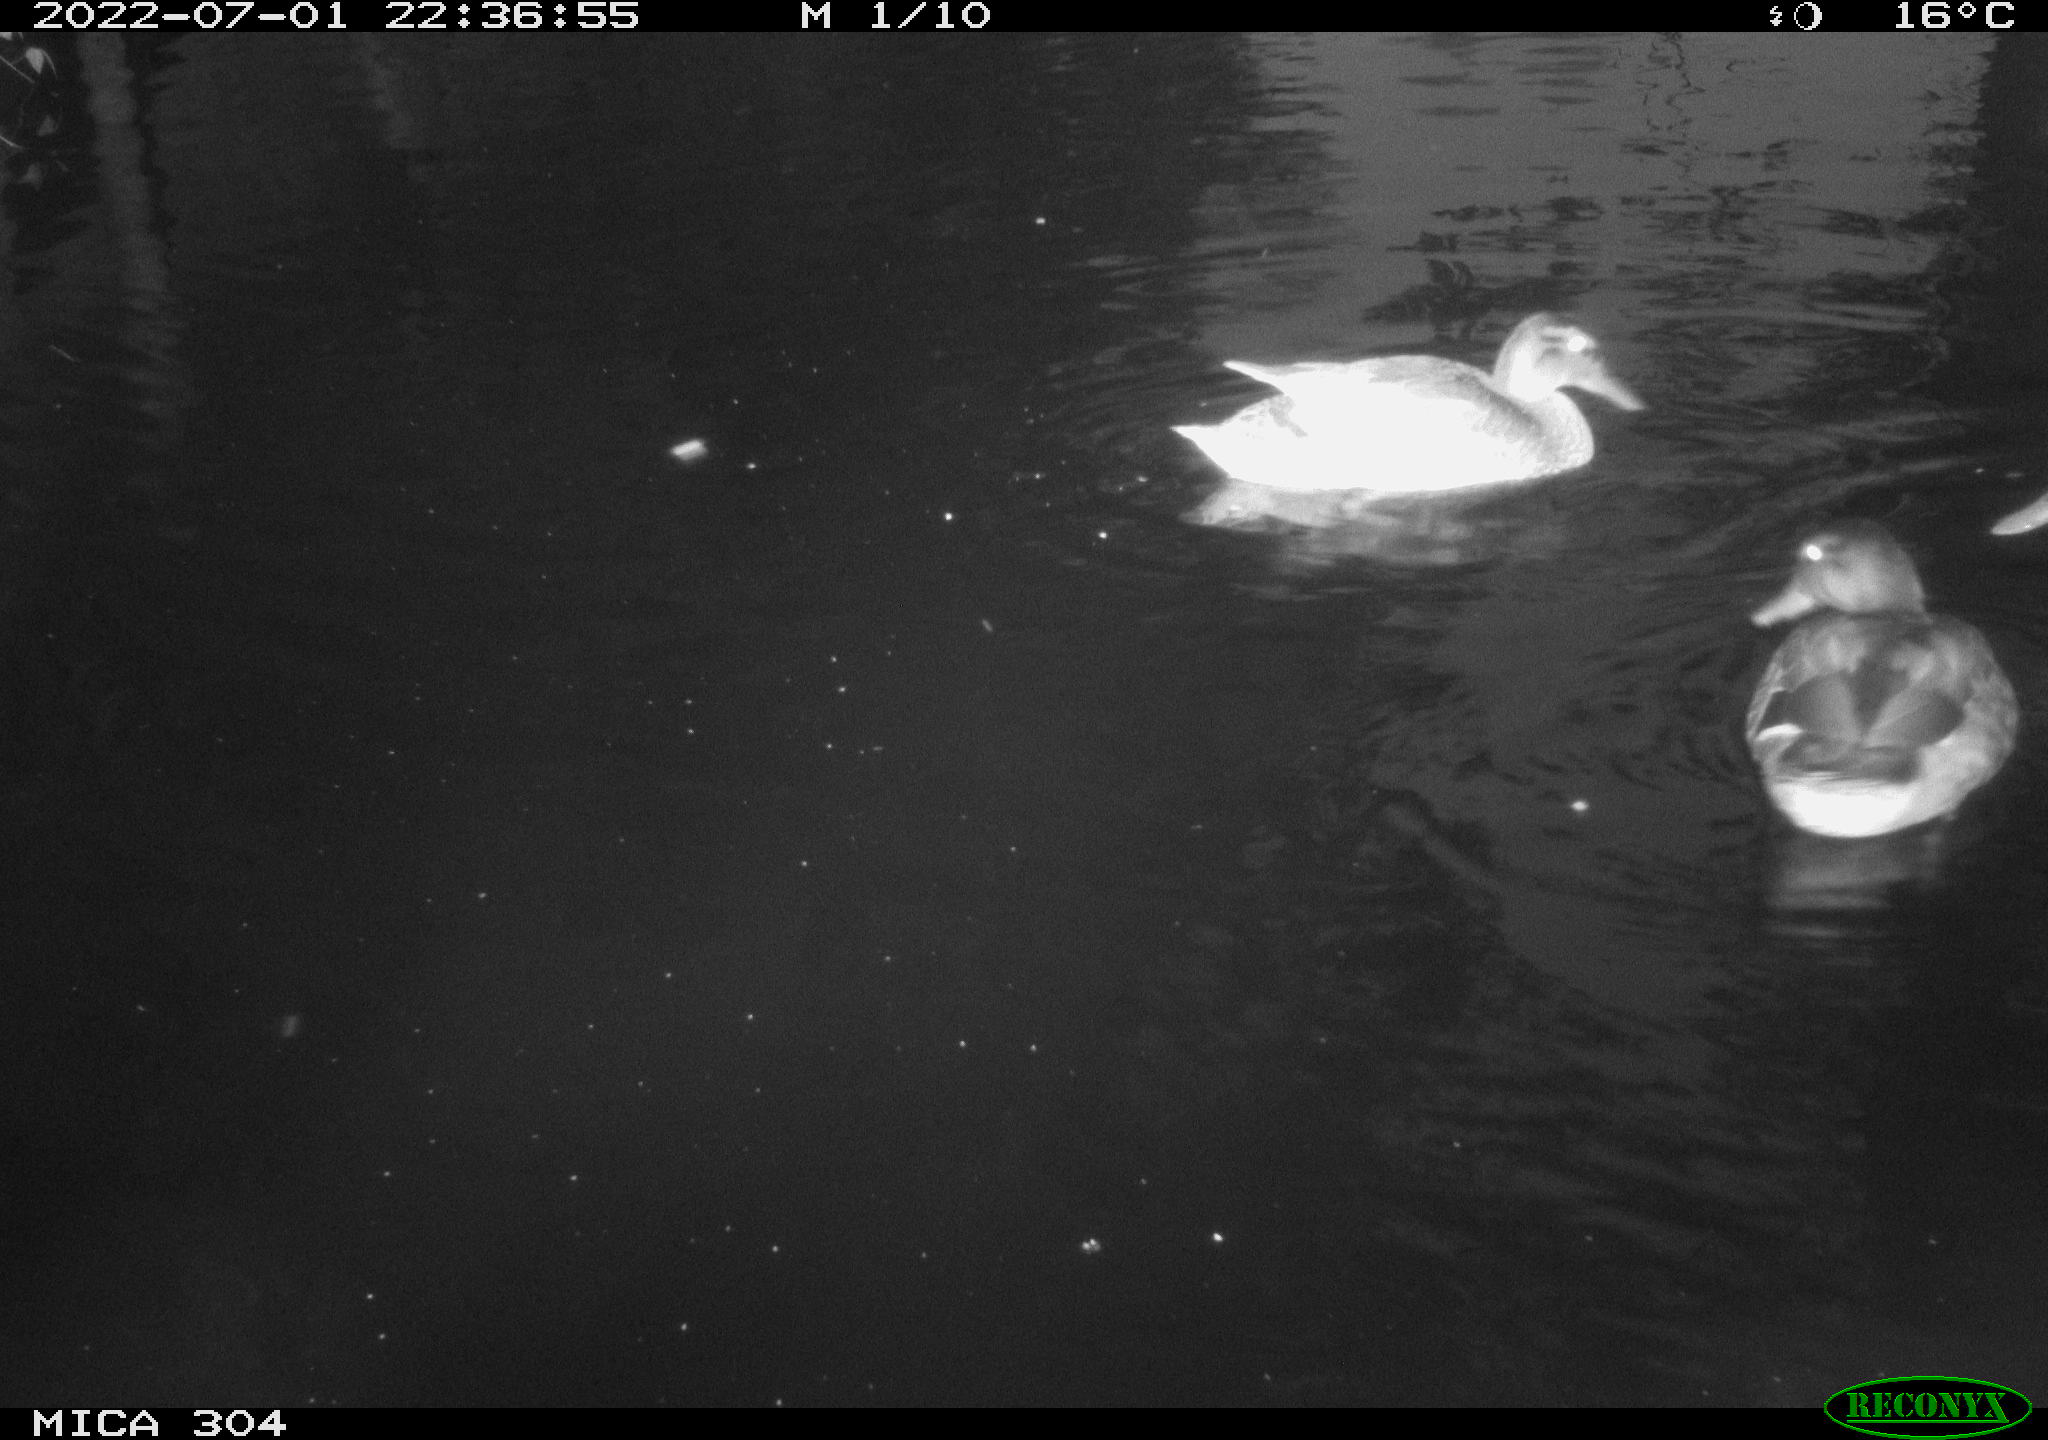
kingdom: Animalia
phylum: Chordata
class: Aves
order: Anseriformes
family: Anatidae
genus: Mareca
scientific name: Mareca strepera
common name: Gadwall
